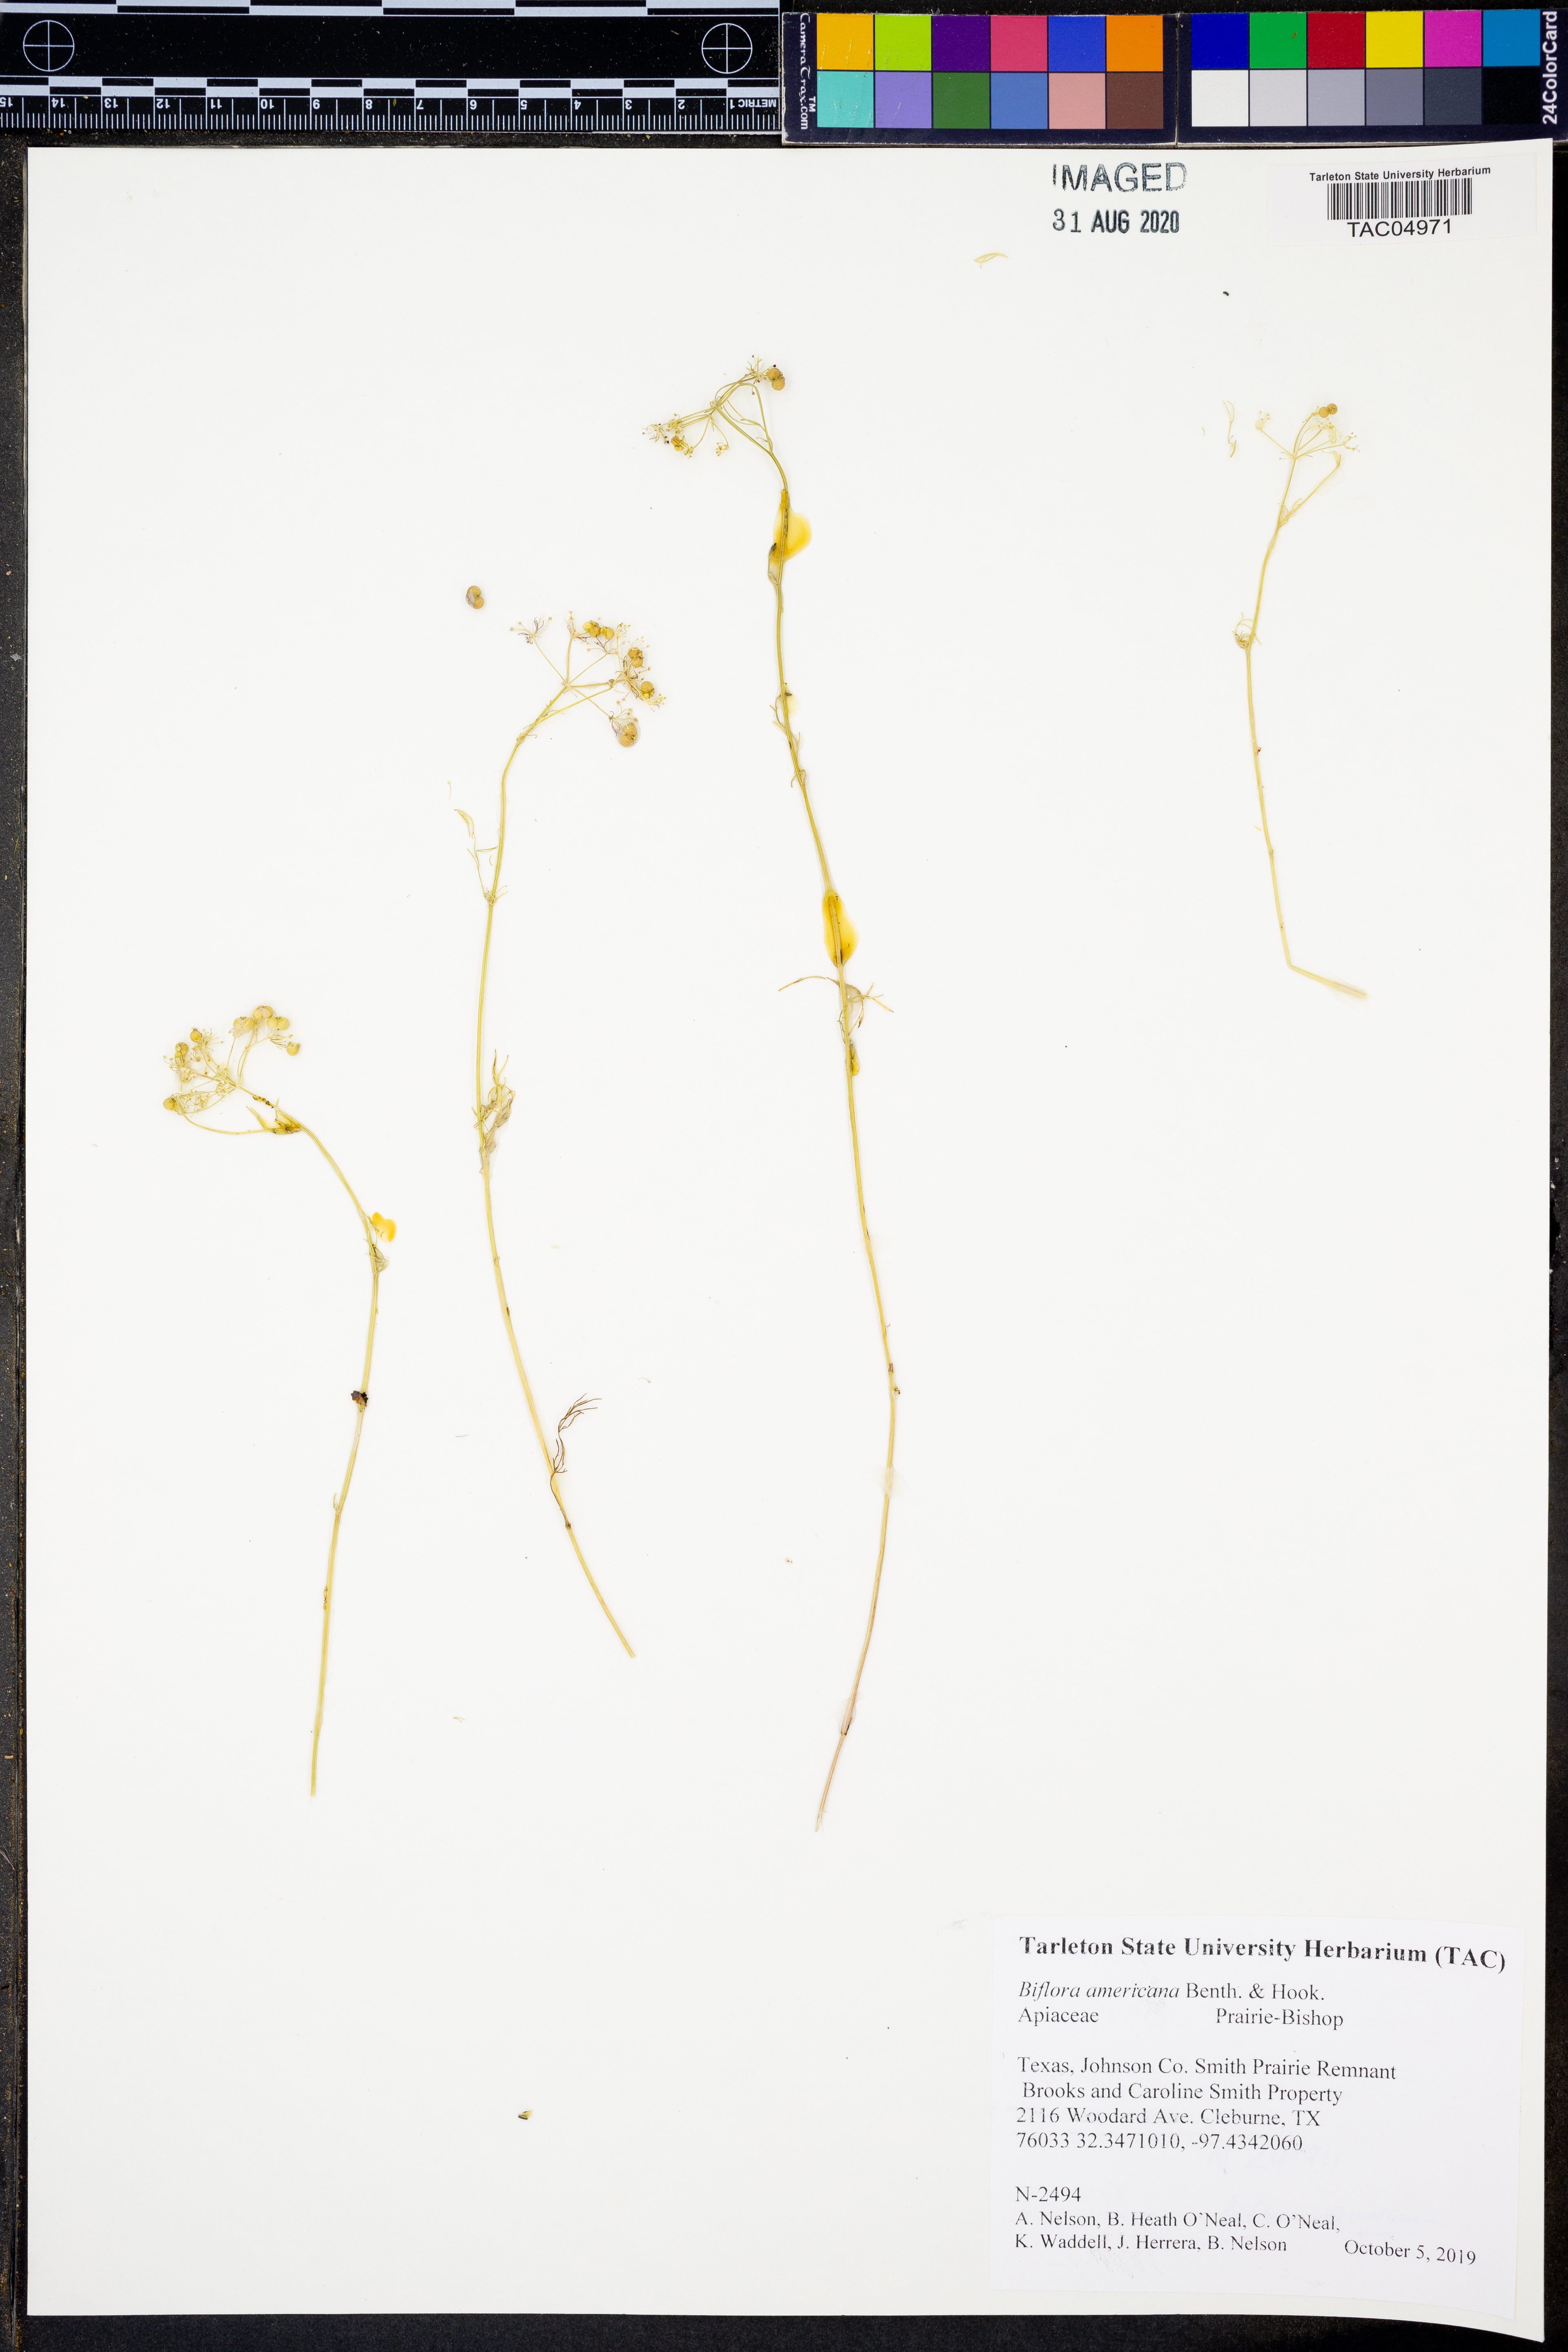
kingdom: Plantae
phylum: Tracheophyta
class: Magnoliopsida
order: Apiales
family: Apiaceae
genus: Atrema
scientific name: Atrema americanum
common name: Prairie-bishop
